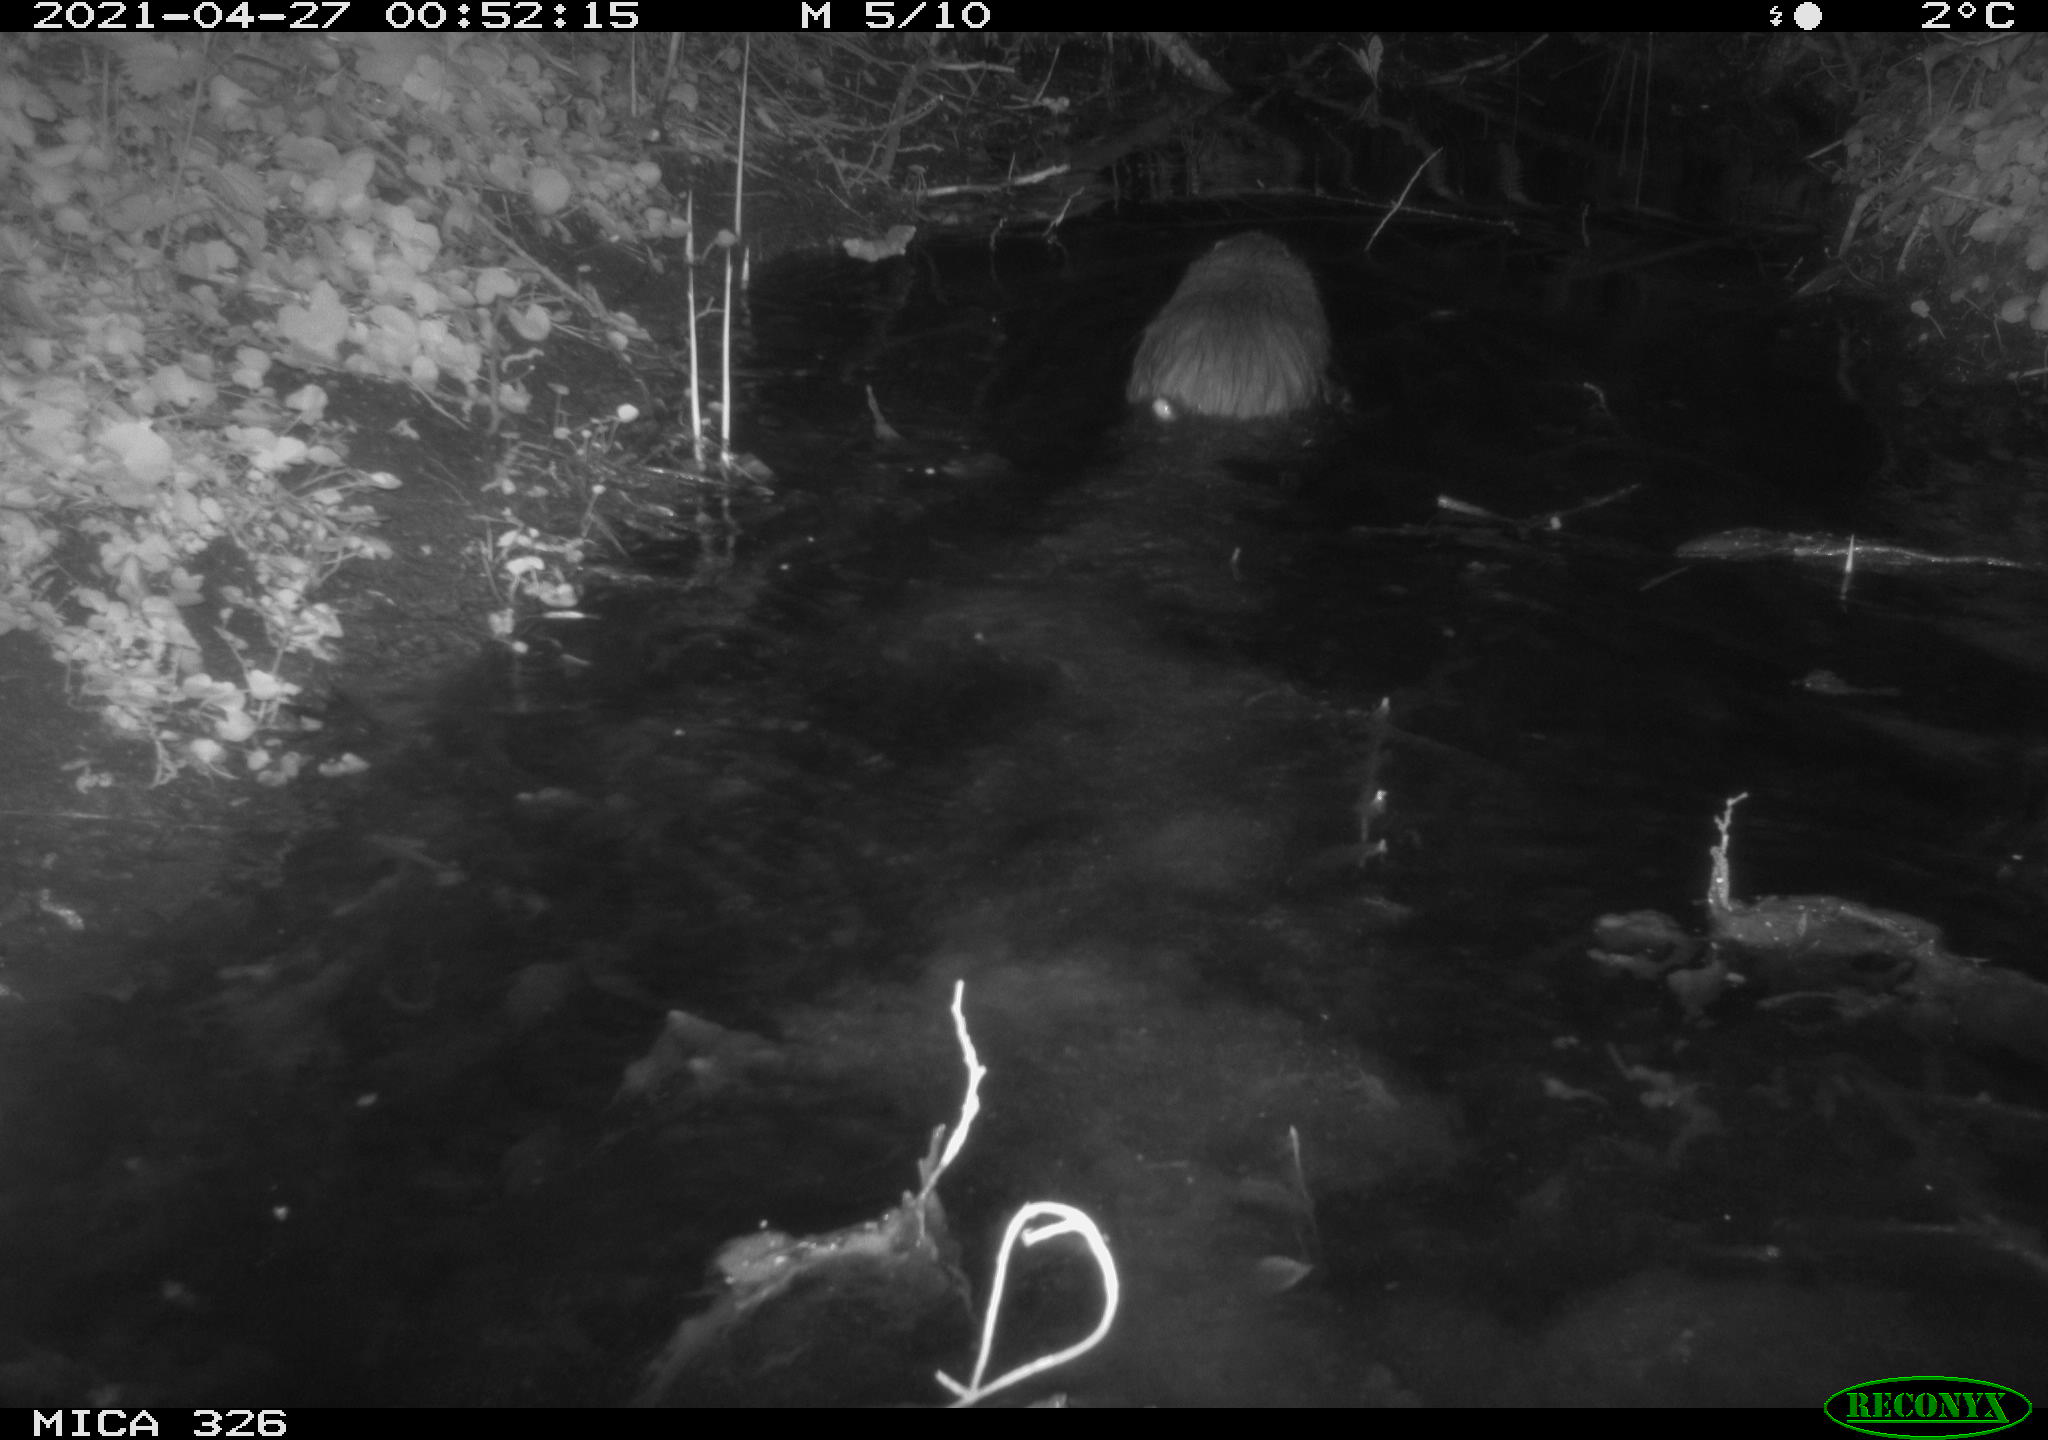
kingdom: Animalia
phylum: Chordata
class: Mammalia
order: Rodentia
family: Myocastoridae
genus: Myocastor
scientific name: Myocastor coypus
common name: Coypu
